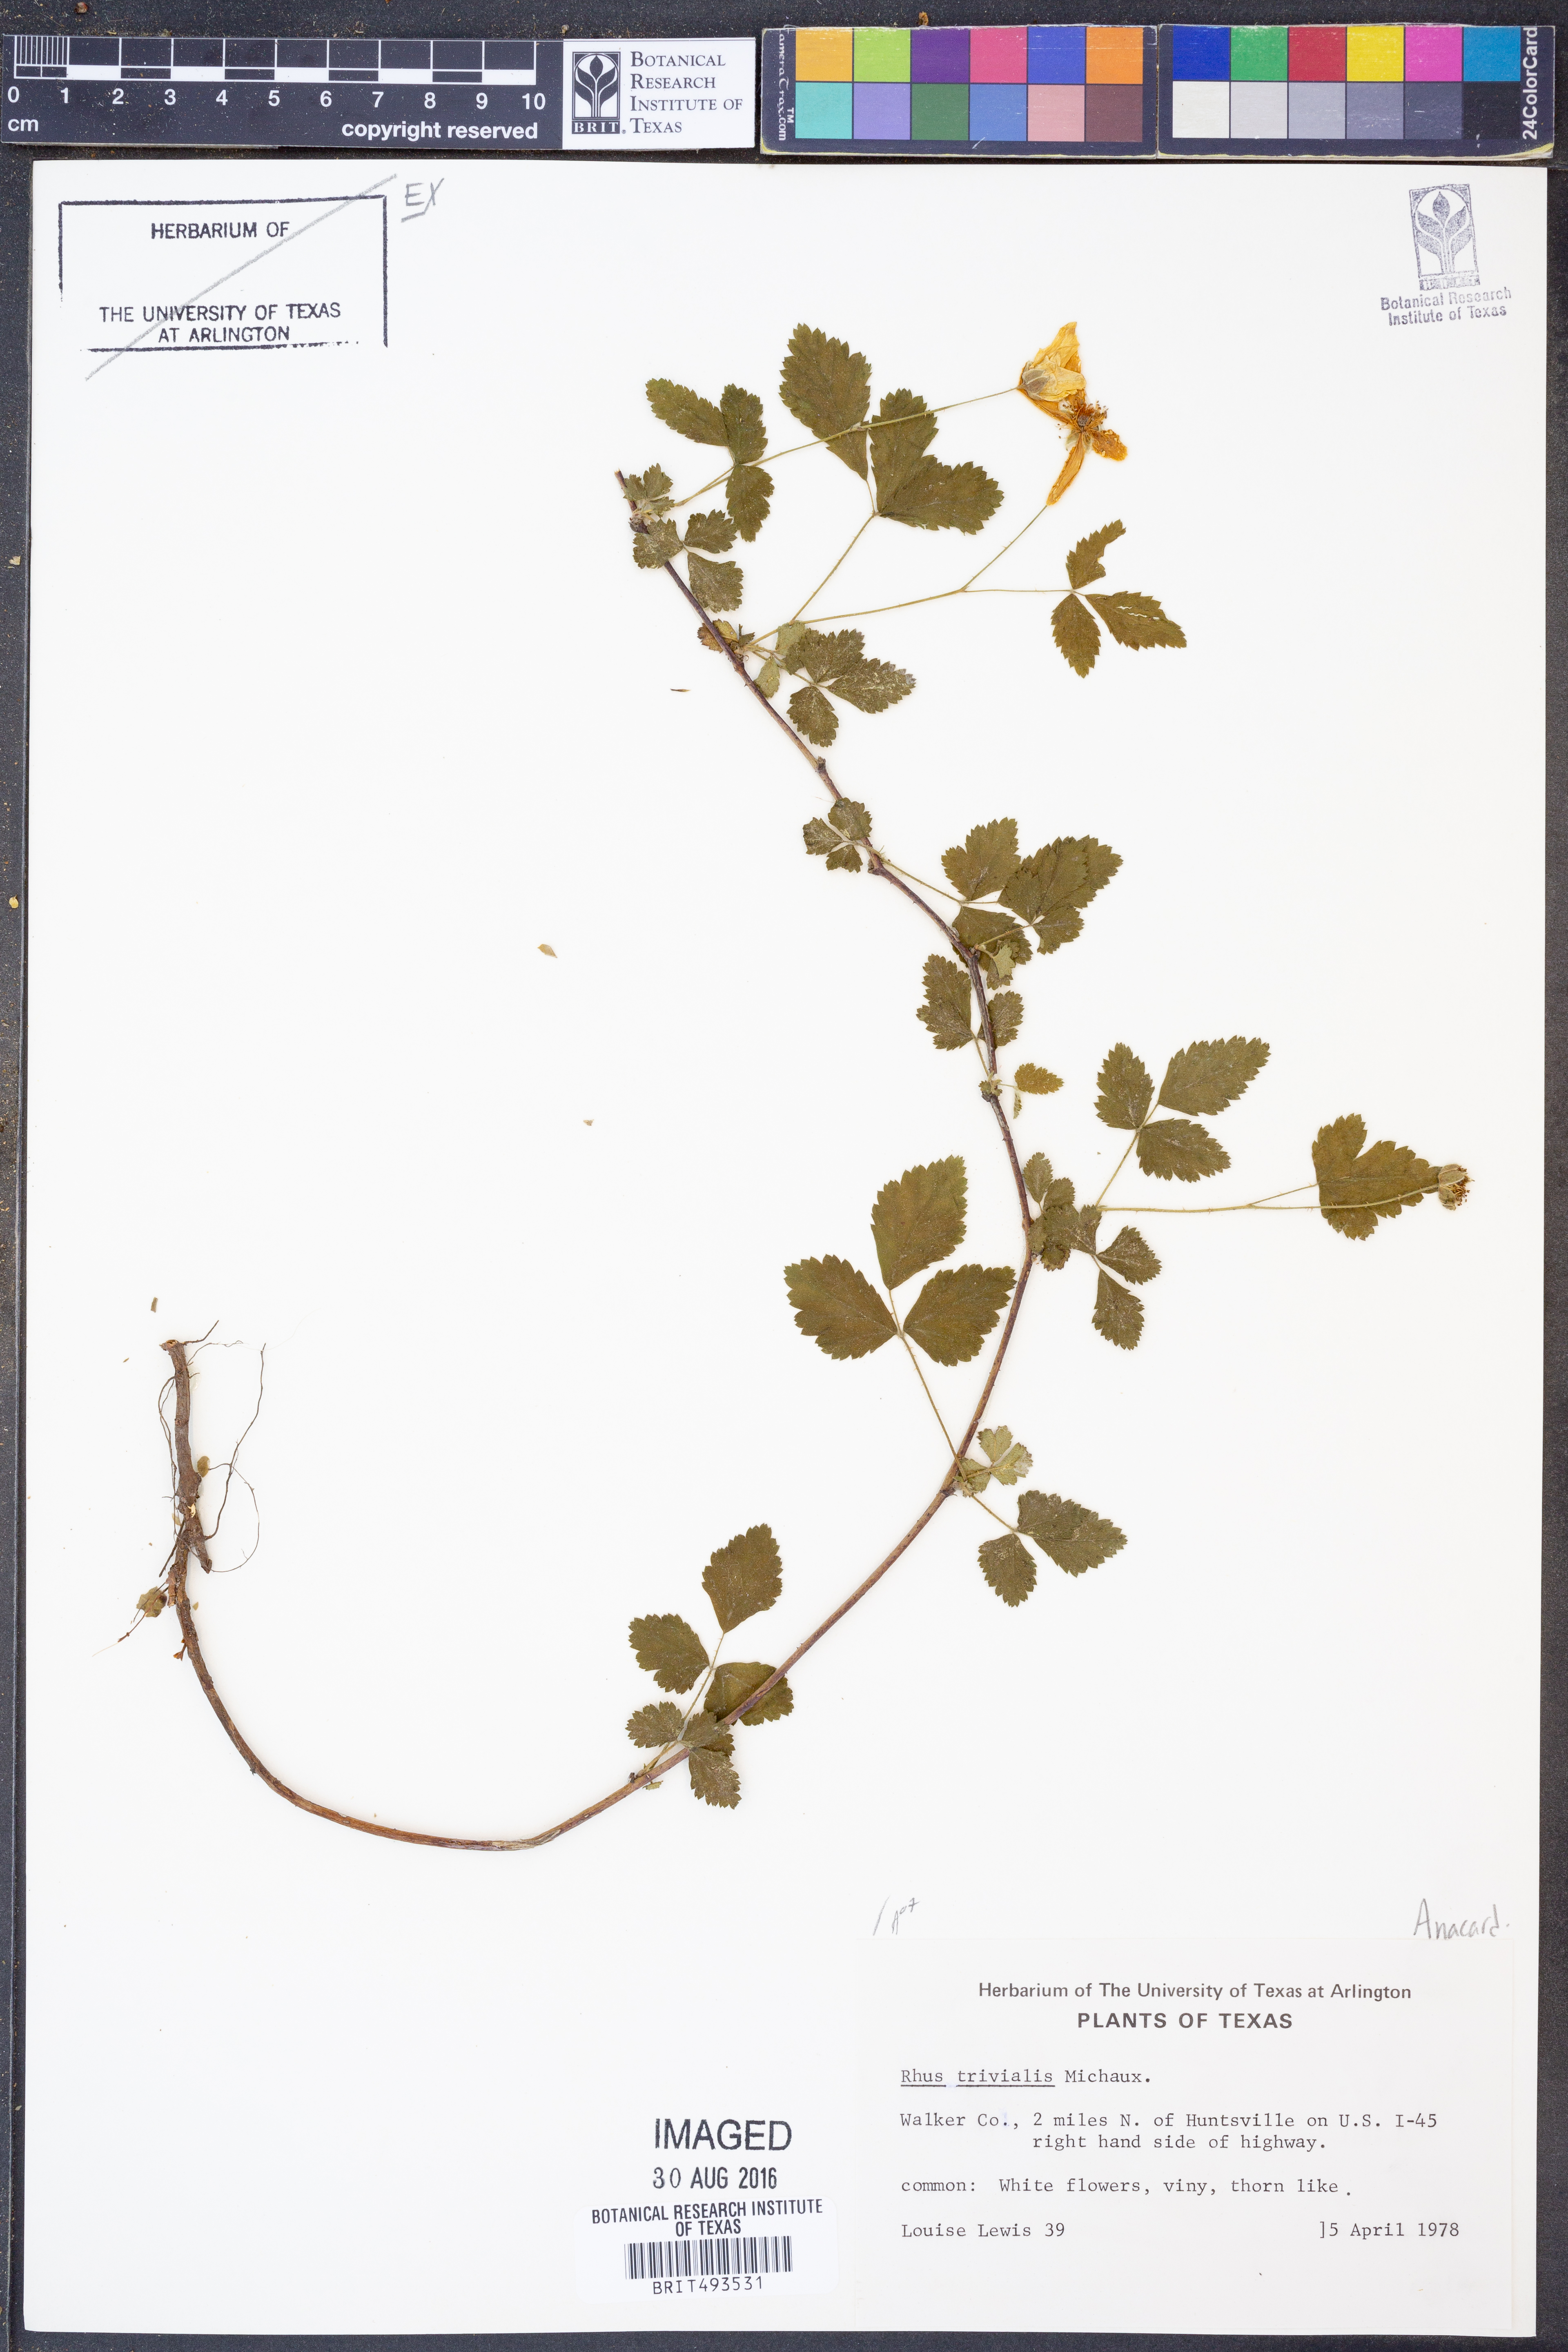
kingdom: Plantae
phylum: Tracheophyta
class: Magnoliopsida
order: Sapindales
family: Anacardiaceae
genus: Rhus
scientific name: Rhus
